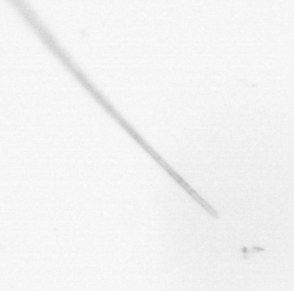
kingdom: Chromista
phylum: Ochrophyta
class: Bacillariophyceae
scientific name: Bacillariophyceae
